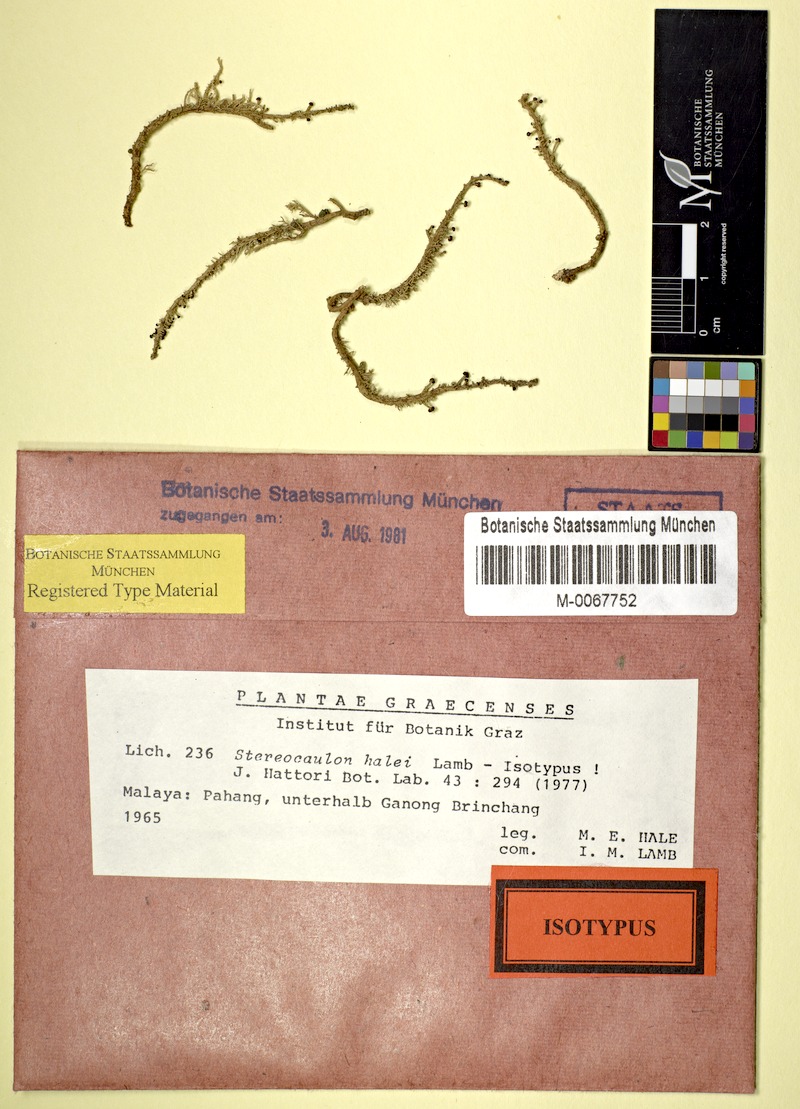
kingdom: Fungi
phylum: Ascomycota
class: Lecanoromycetes
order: Lecanorales
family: Stereocaulaceae
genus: Stereocaulon
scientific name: Stereocaulon halei
